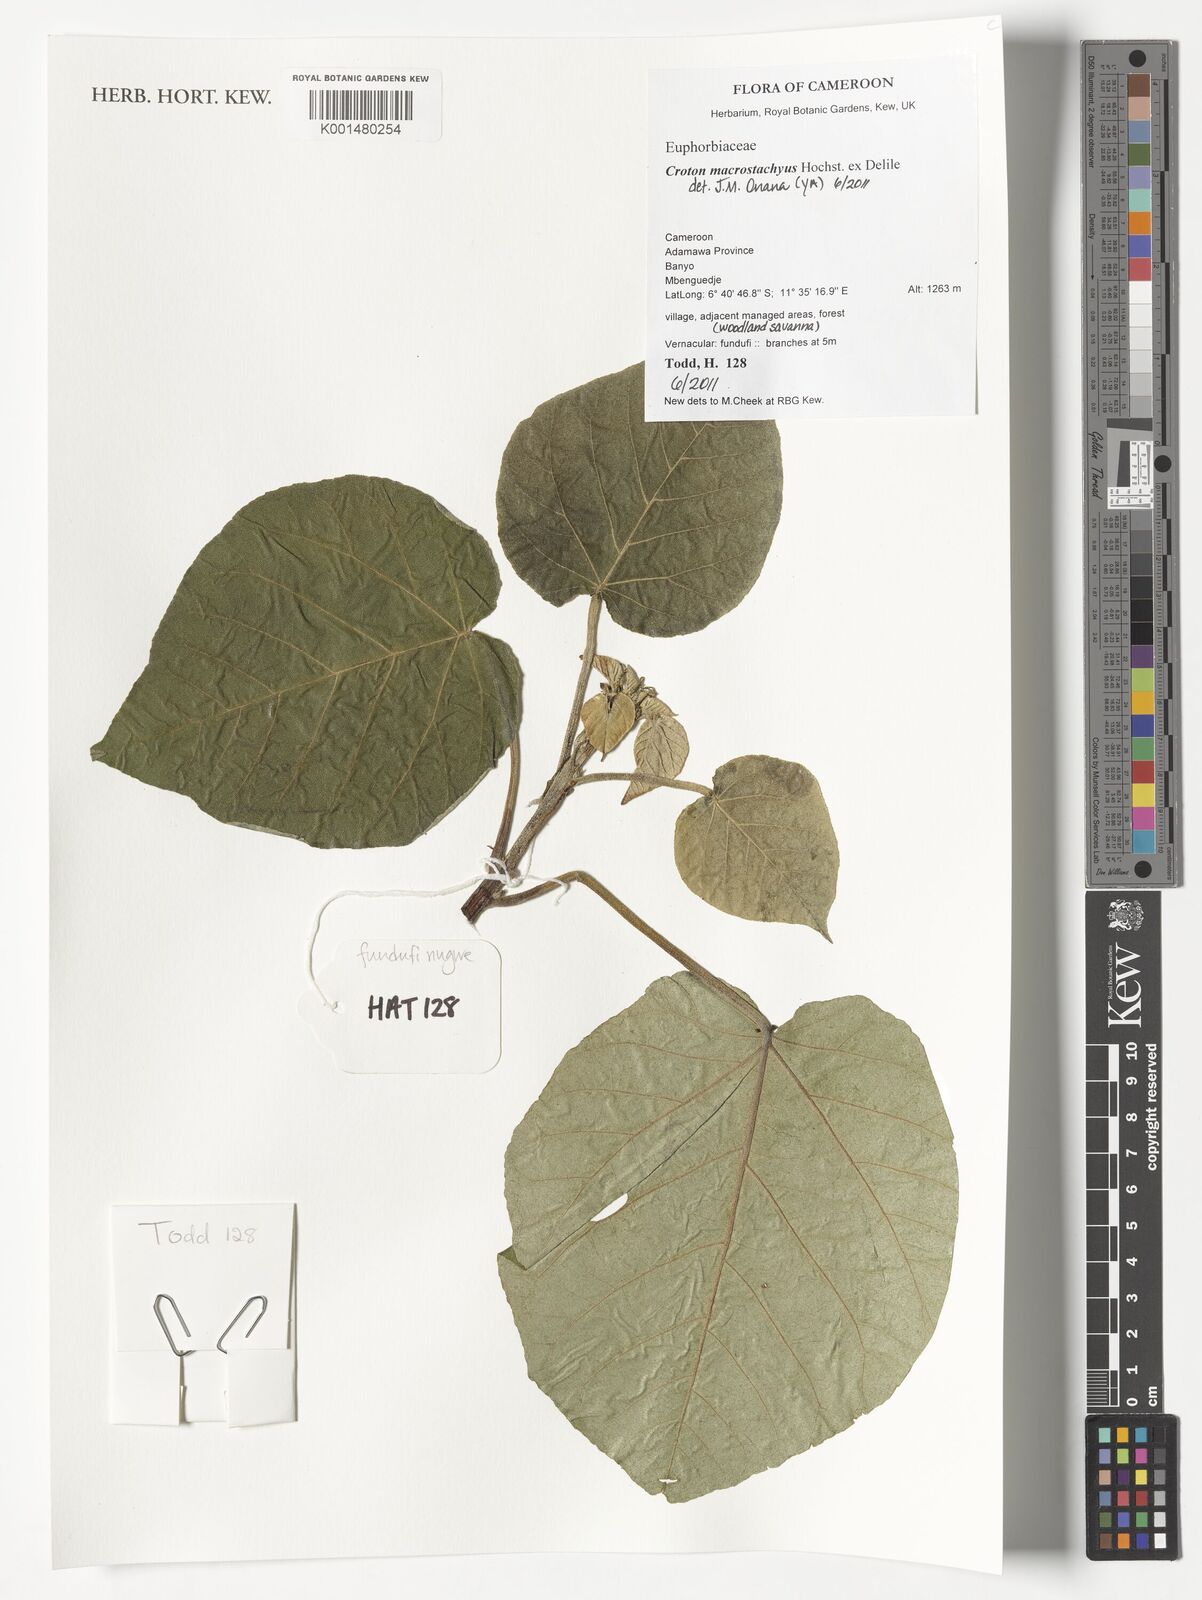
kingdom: Plantae
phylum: Tracheophyta
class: Magnoliopsida
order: Malpighiales
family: Euphorbiaceae
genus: Croton
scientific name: Croton macrostachyus
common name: Mutundu
